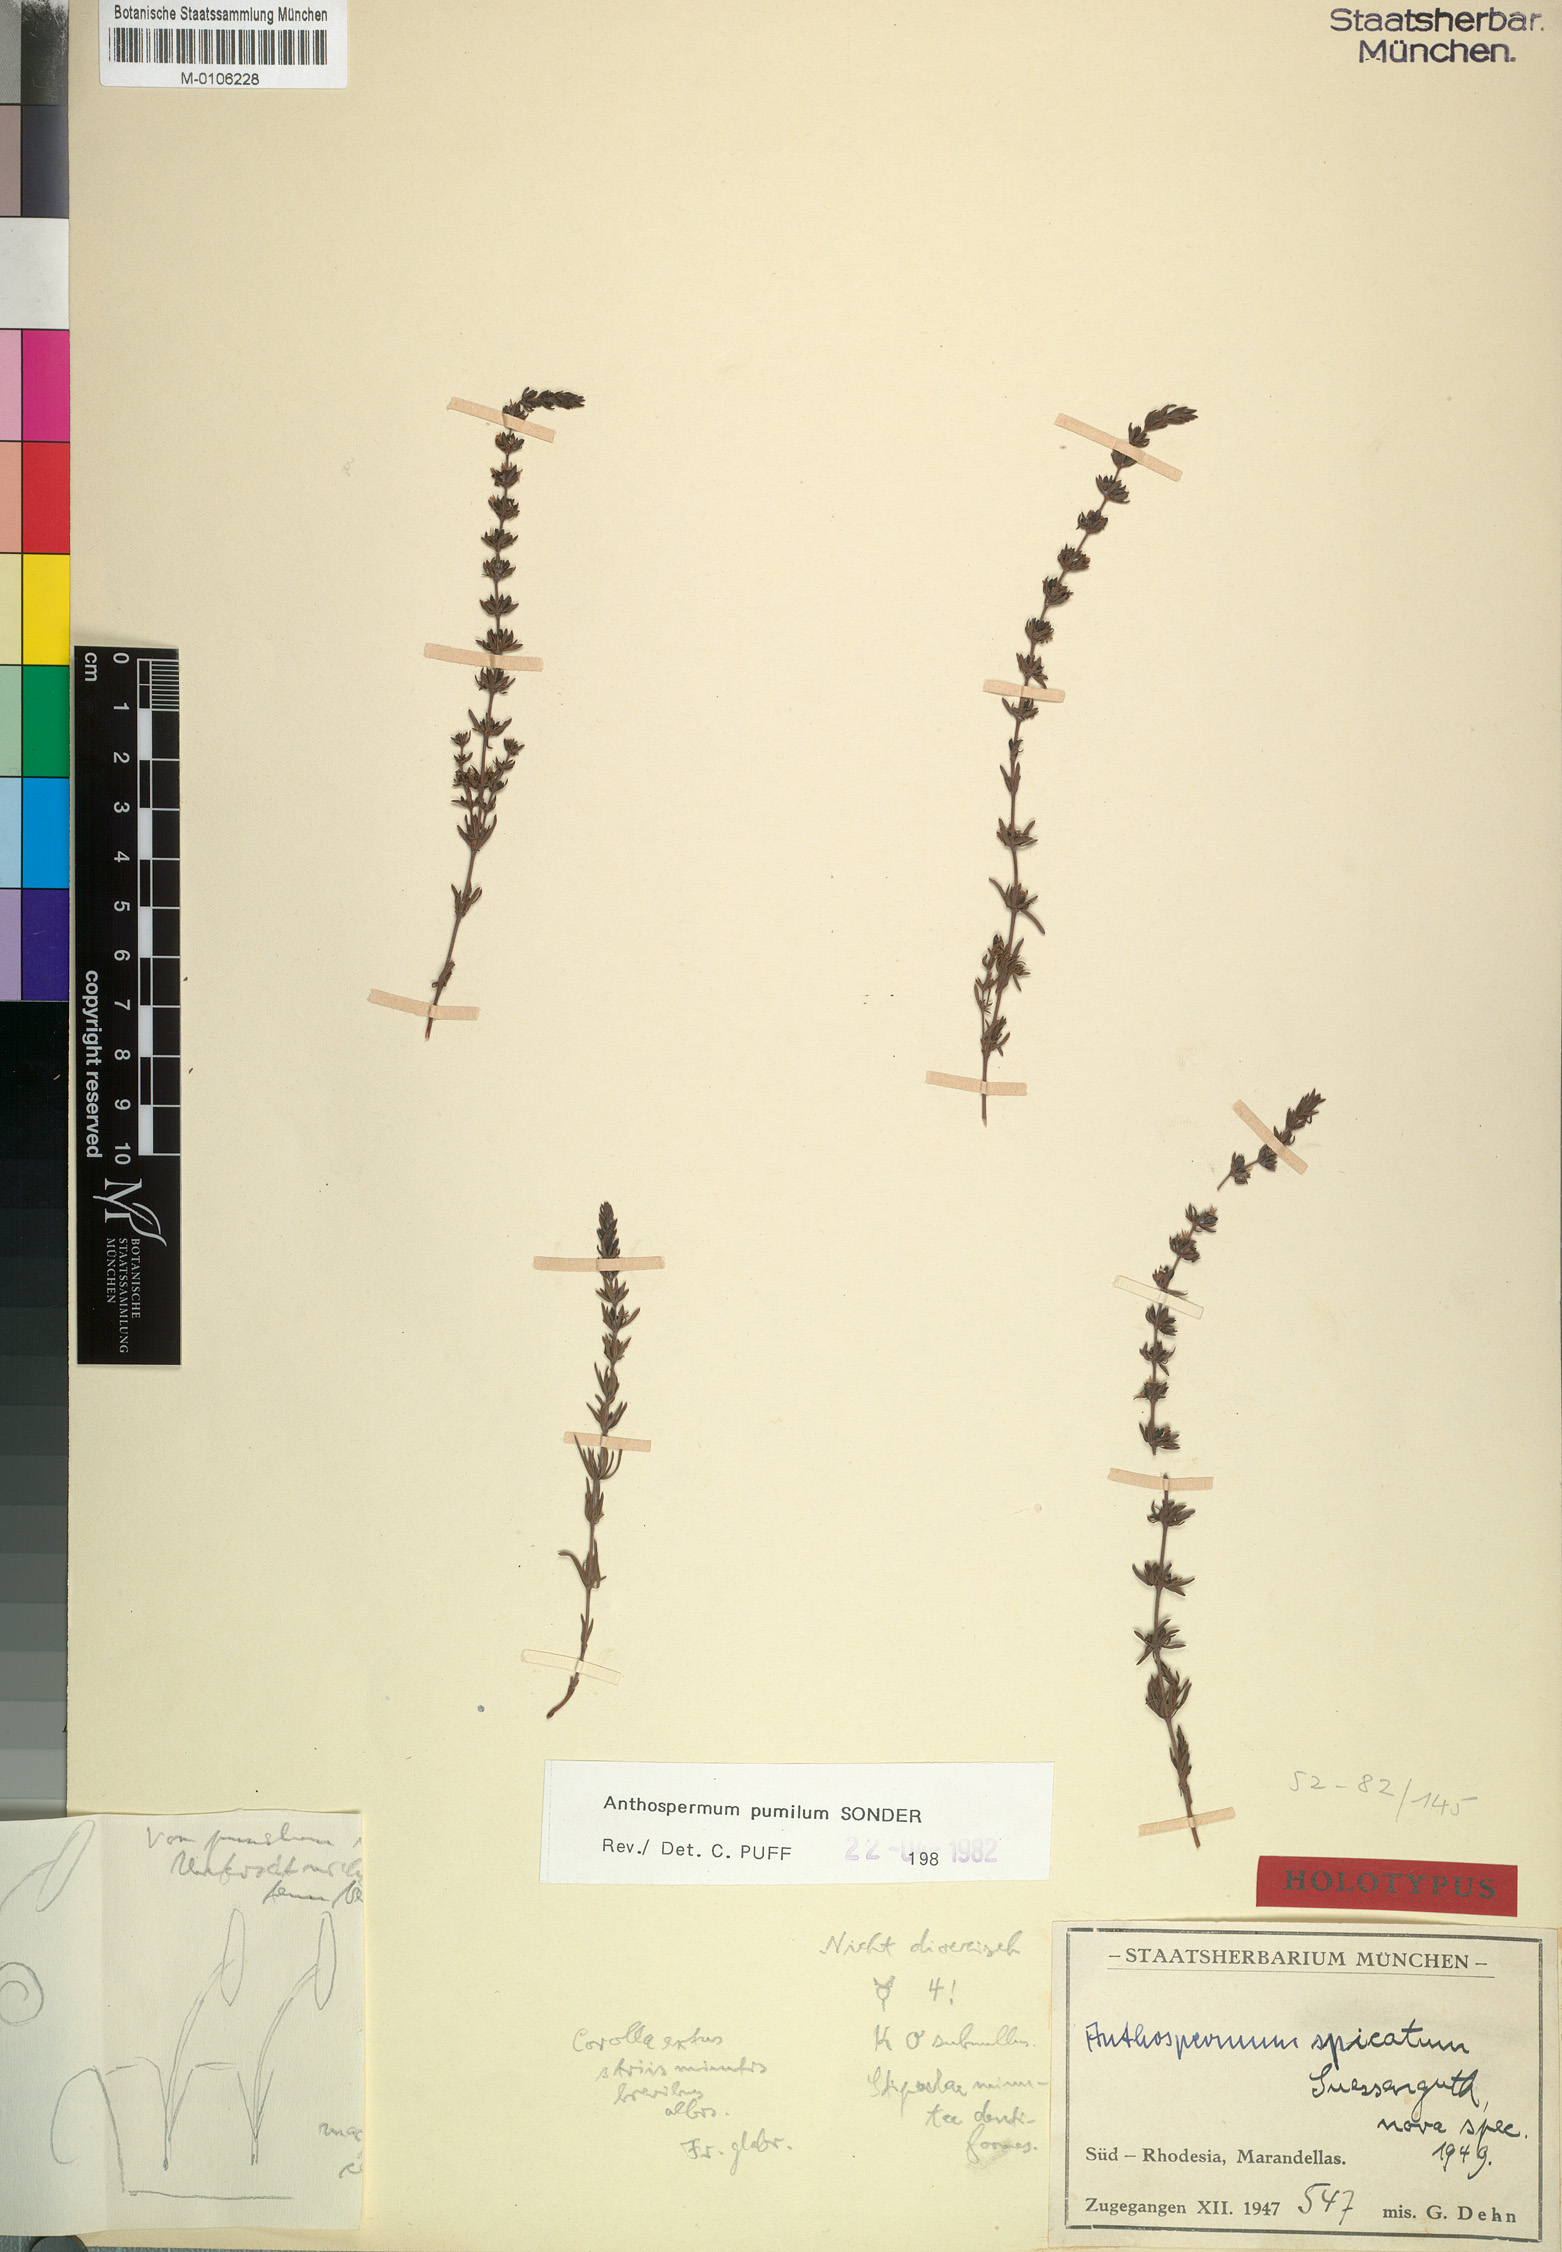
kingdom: Plantae
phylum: Tracheophyta
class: Magnoliopsida
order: Gentianales
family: Rubiaceae
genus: Anthospermum
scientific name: Anthospermum rigidum
